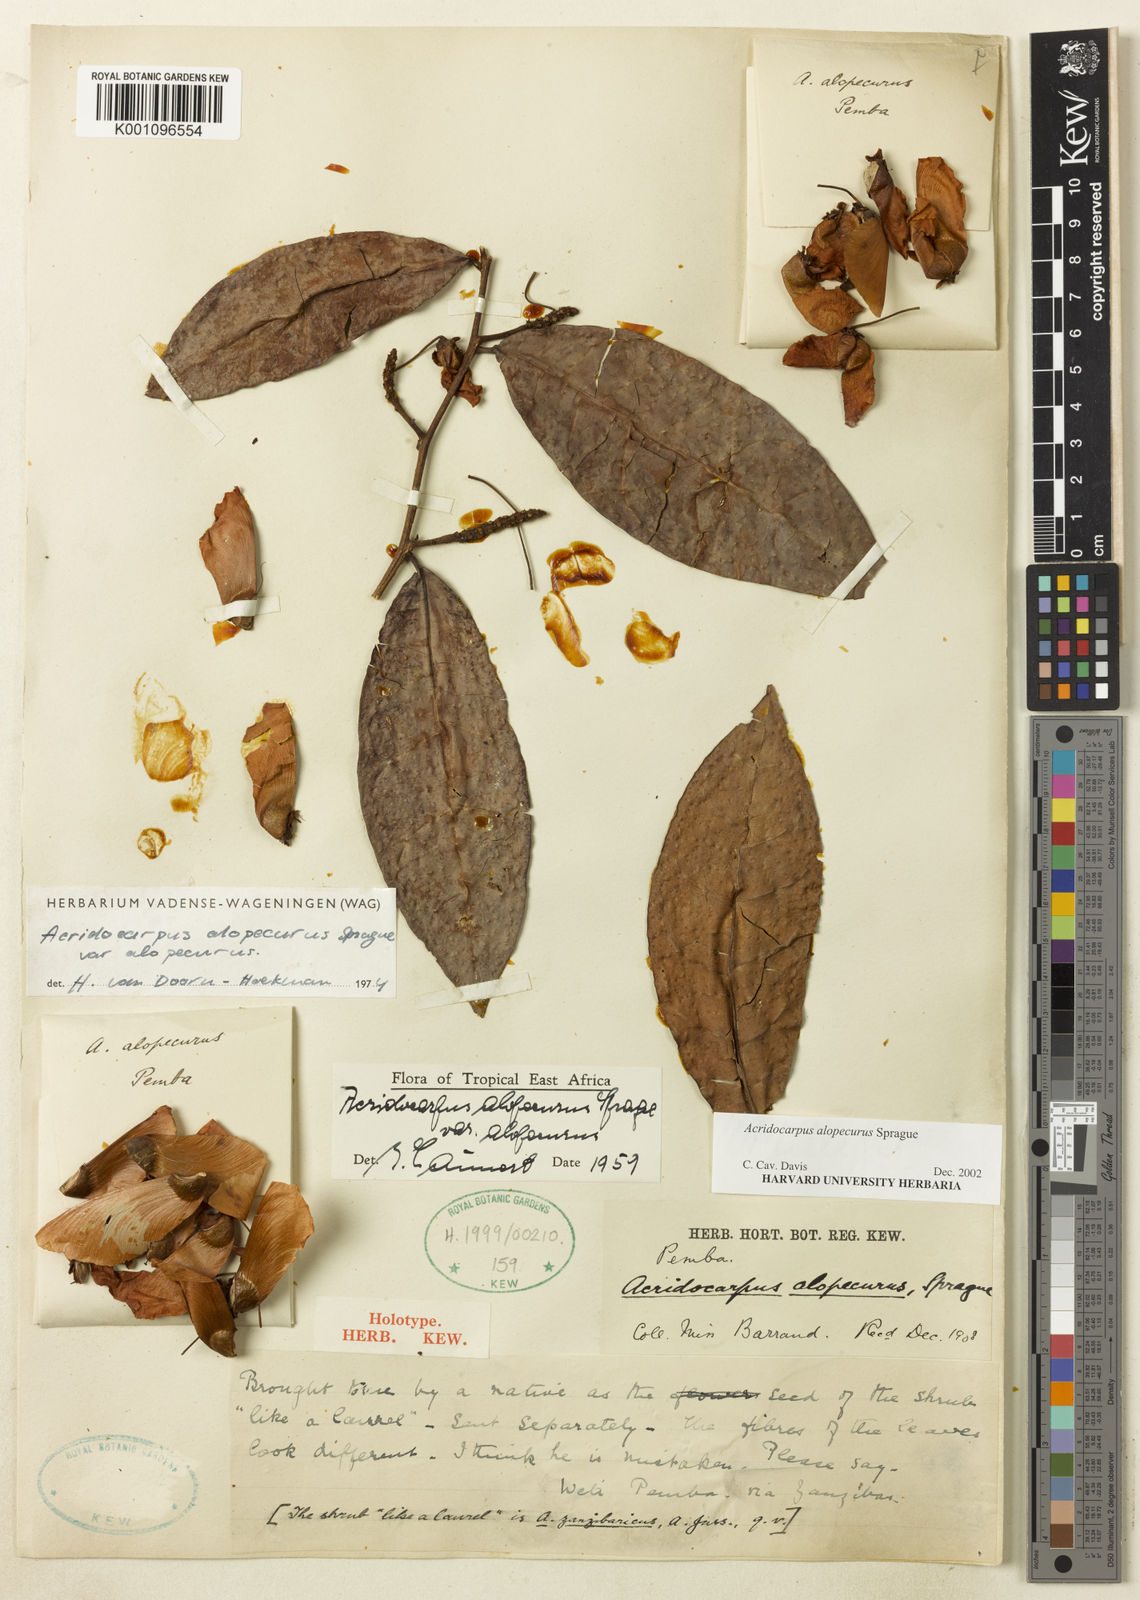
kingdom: Plantae
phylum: Tracheophyta
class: Magnoliopsida
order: Malpighiales
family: Malpighiaceae
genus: Acridocarpus
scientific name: Acridocarpus alopecurus
